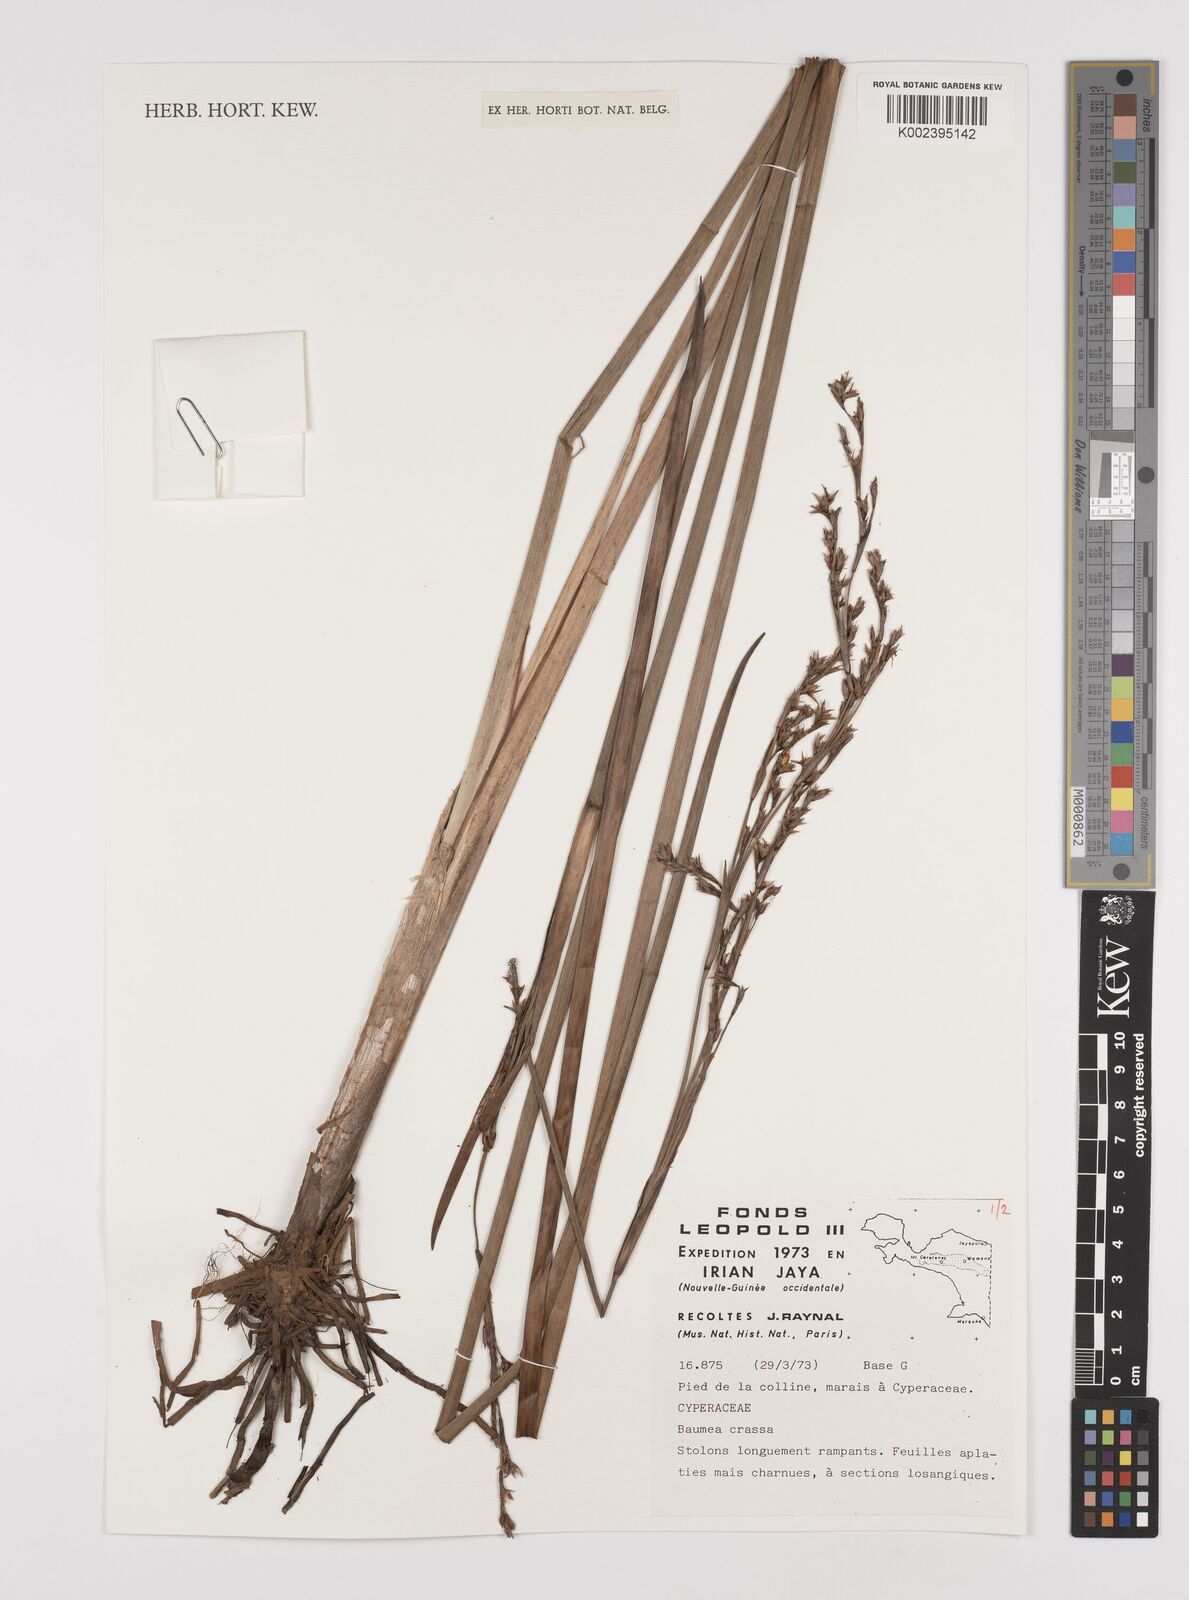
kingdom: Plantae
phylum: Tracheophyta
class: Liliopsida
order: Poales
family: Cyperaceae
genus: Machaerina
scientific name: Machaerina rubiginosa
